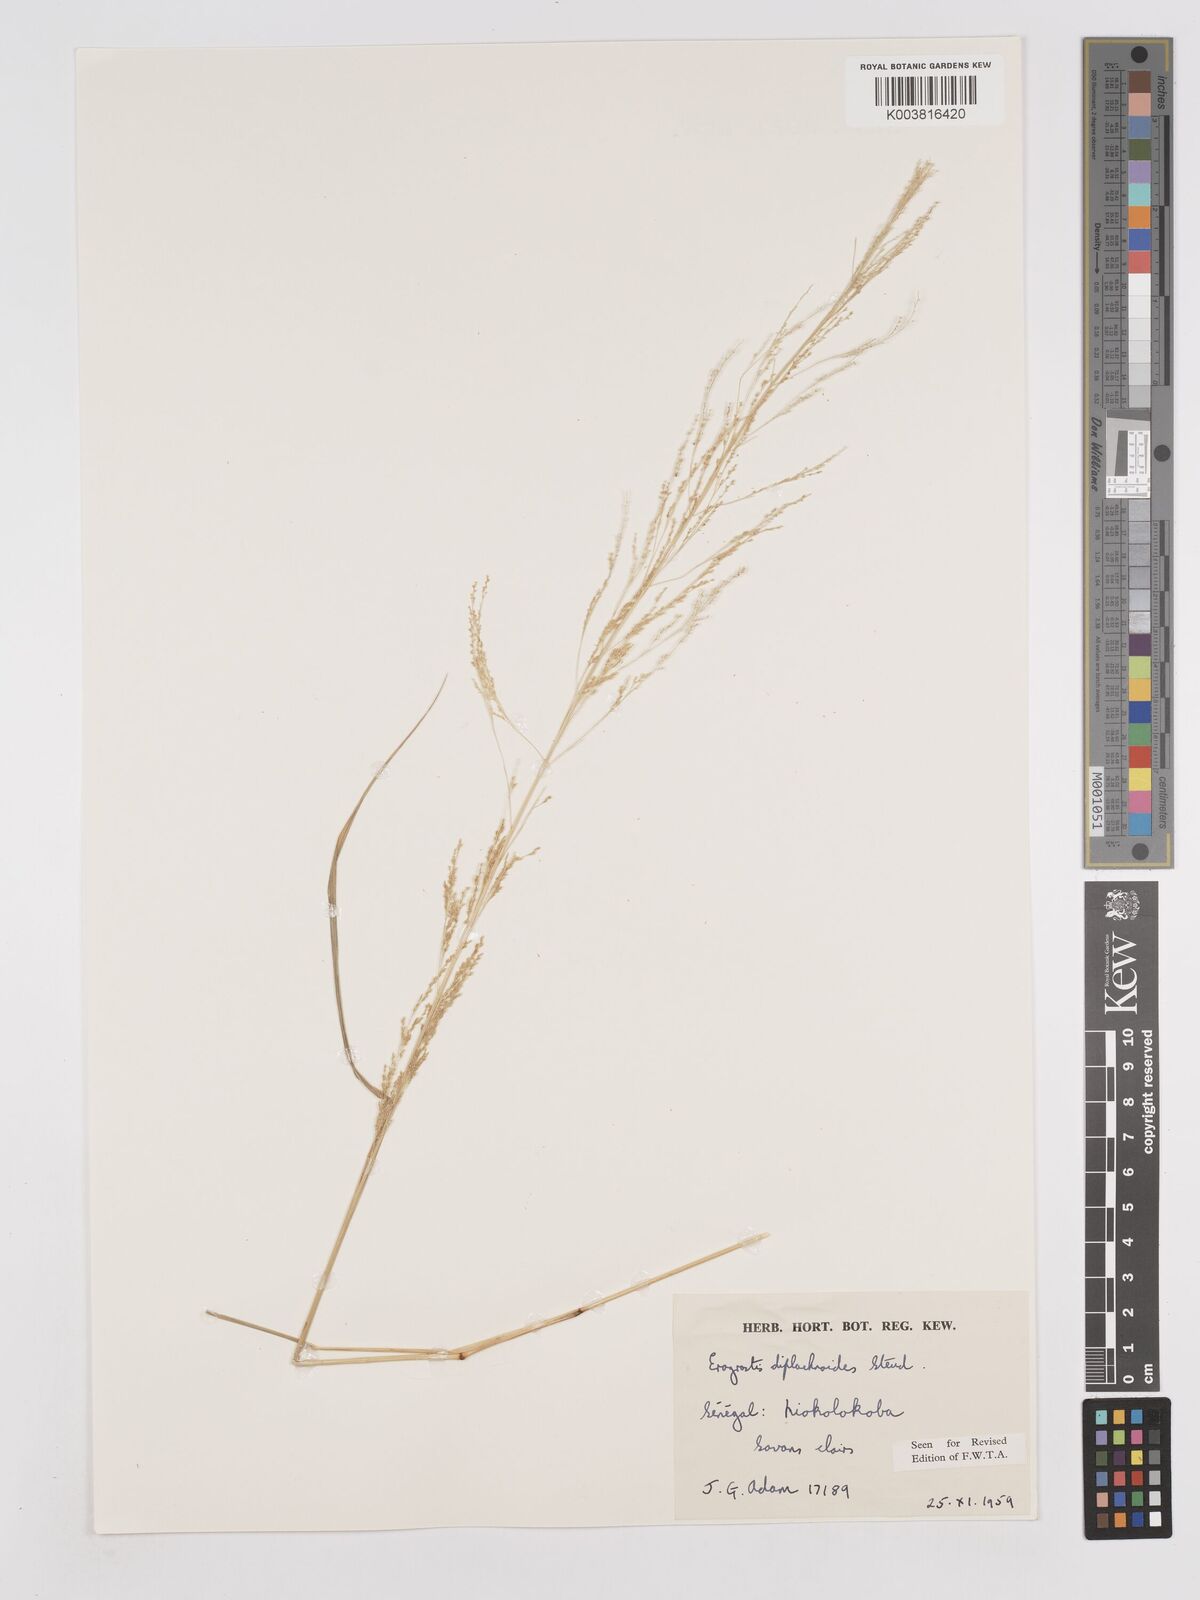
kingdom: Plantae
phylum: Tracheophyta
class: Liliopsida
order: Poales
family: Poaceae
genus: Eragrostis
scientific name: Eragrostis japonica
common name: Pond lovegrass
